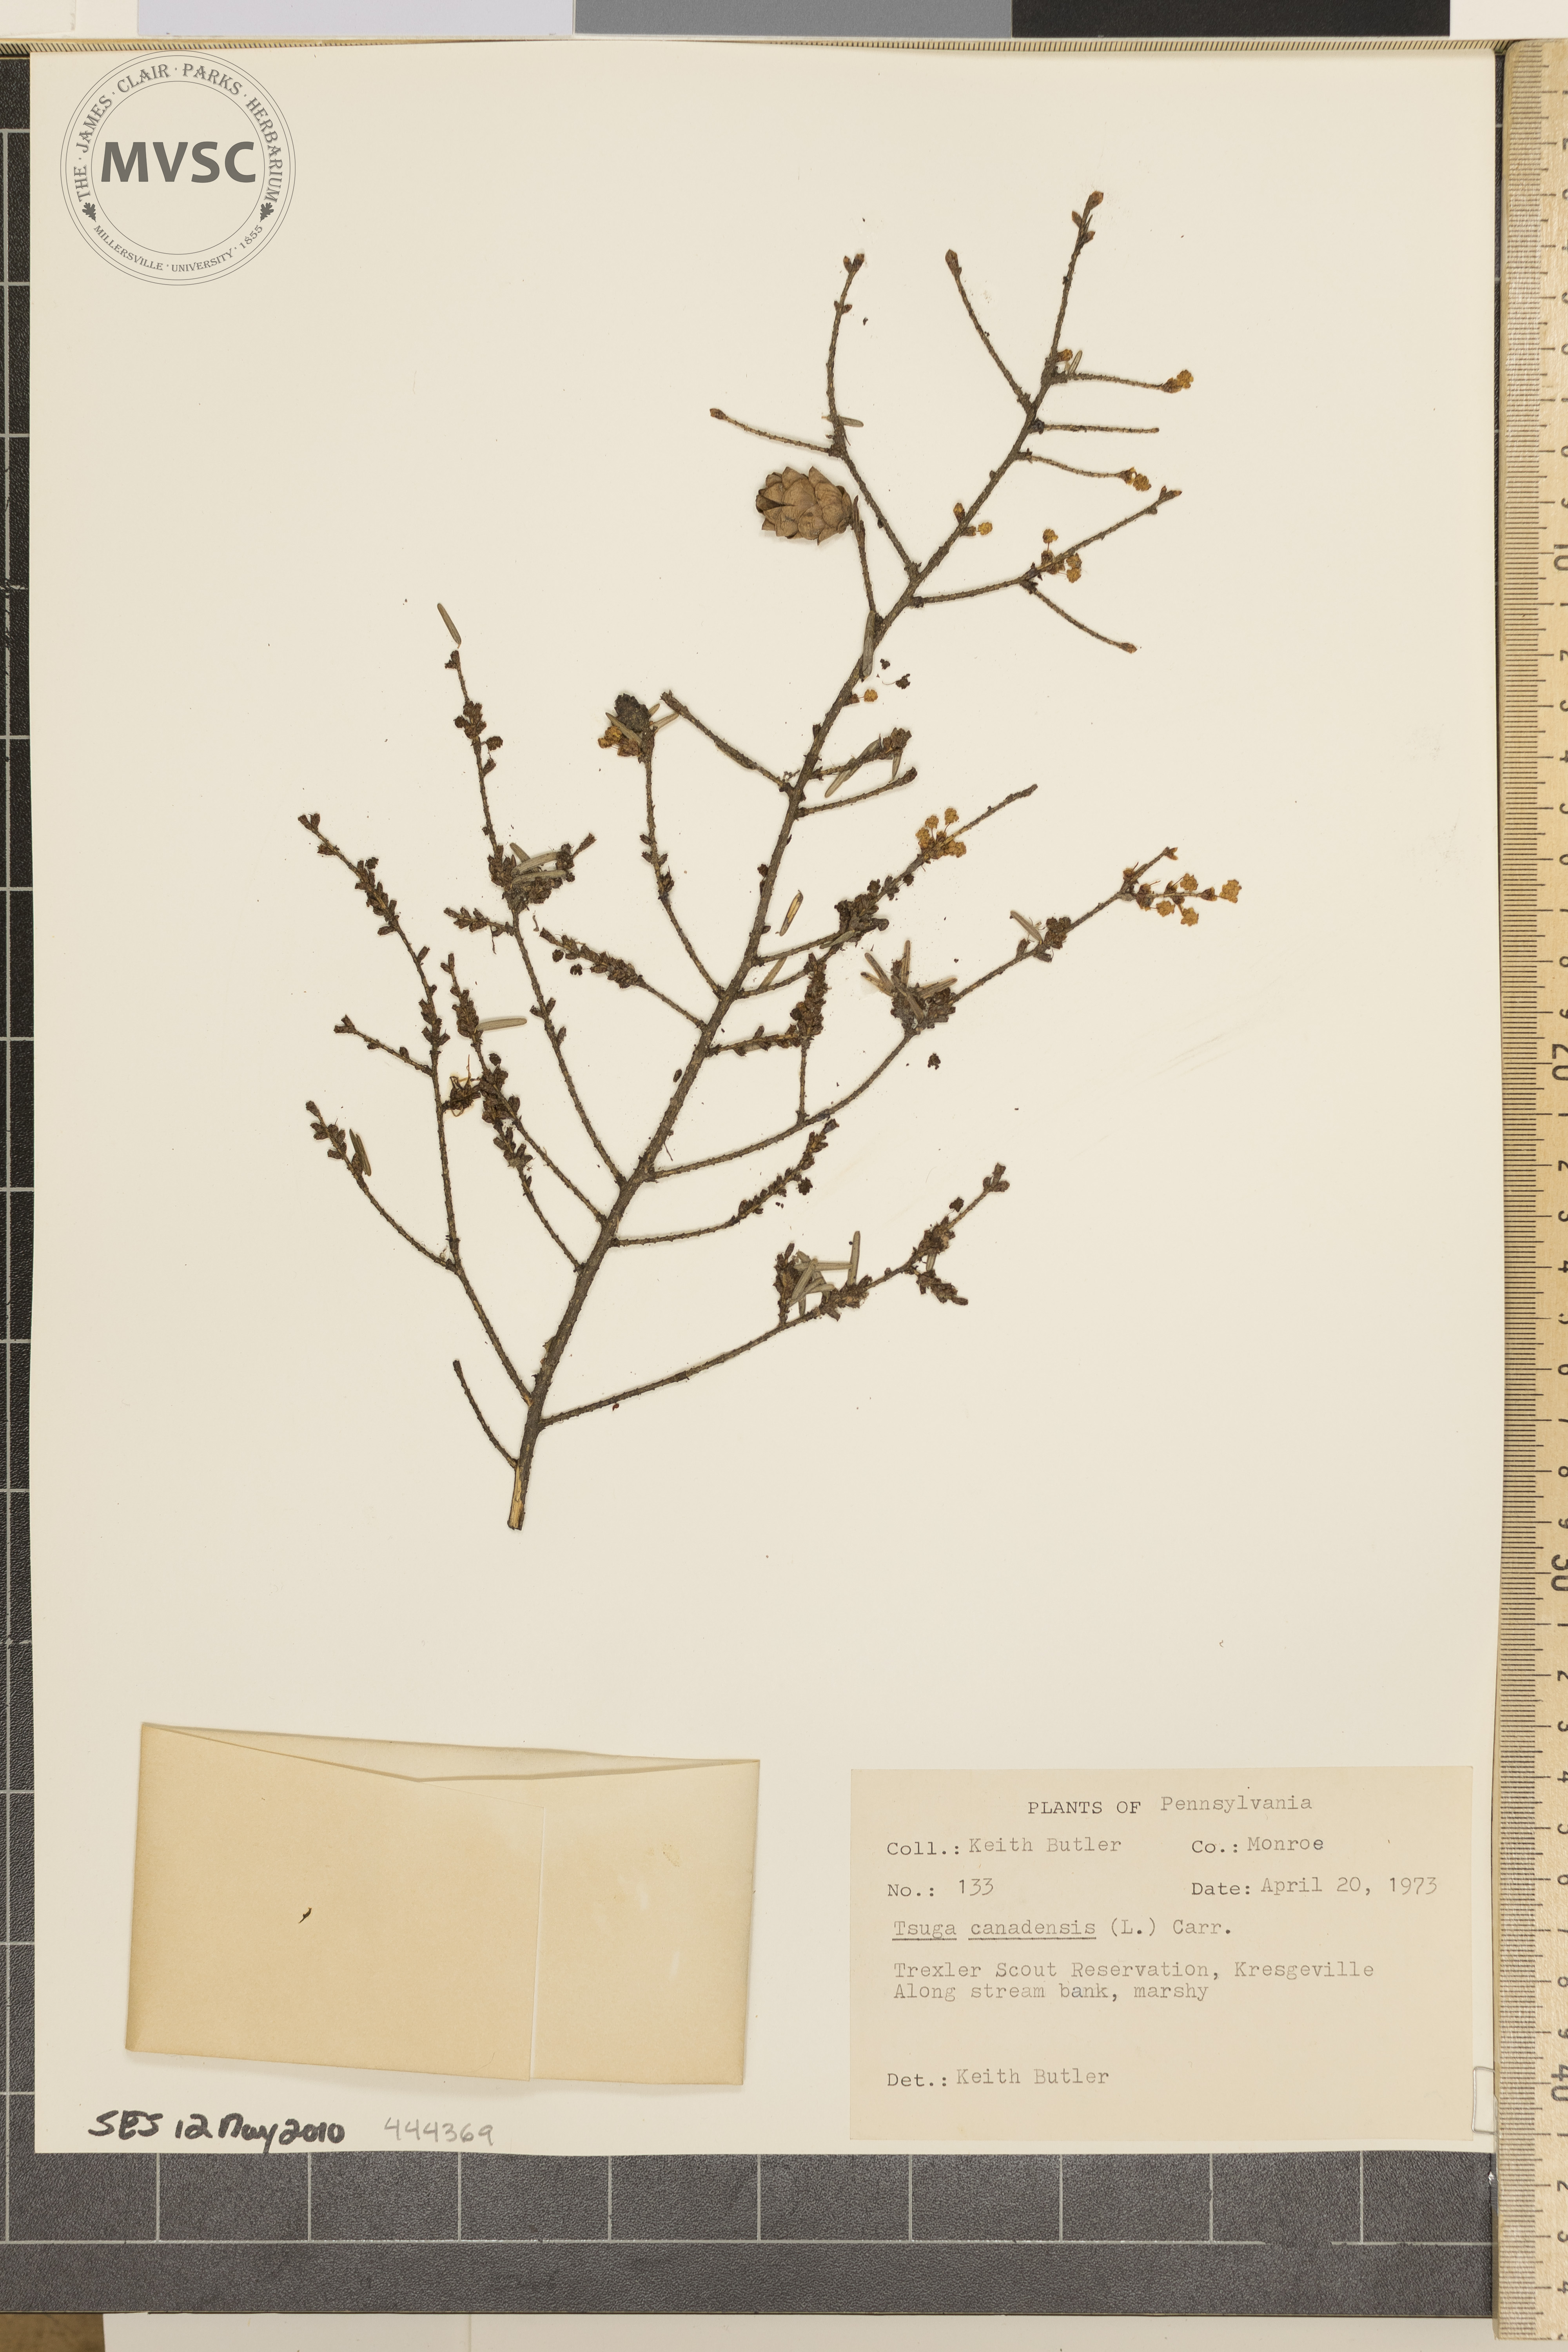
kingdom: Plantae
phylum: Tracheophyta
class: Pinopsida
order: Pinales
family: Pinaceae
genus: Tsuga
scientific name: Tsuga canadensis
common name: Eastern hemlock
